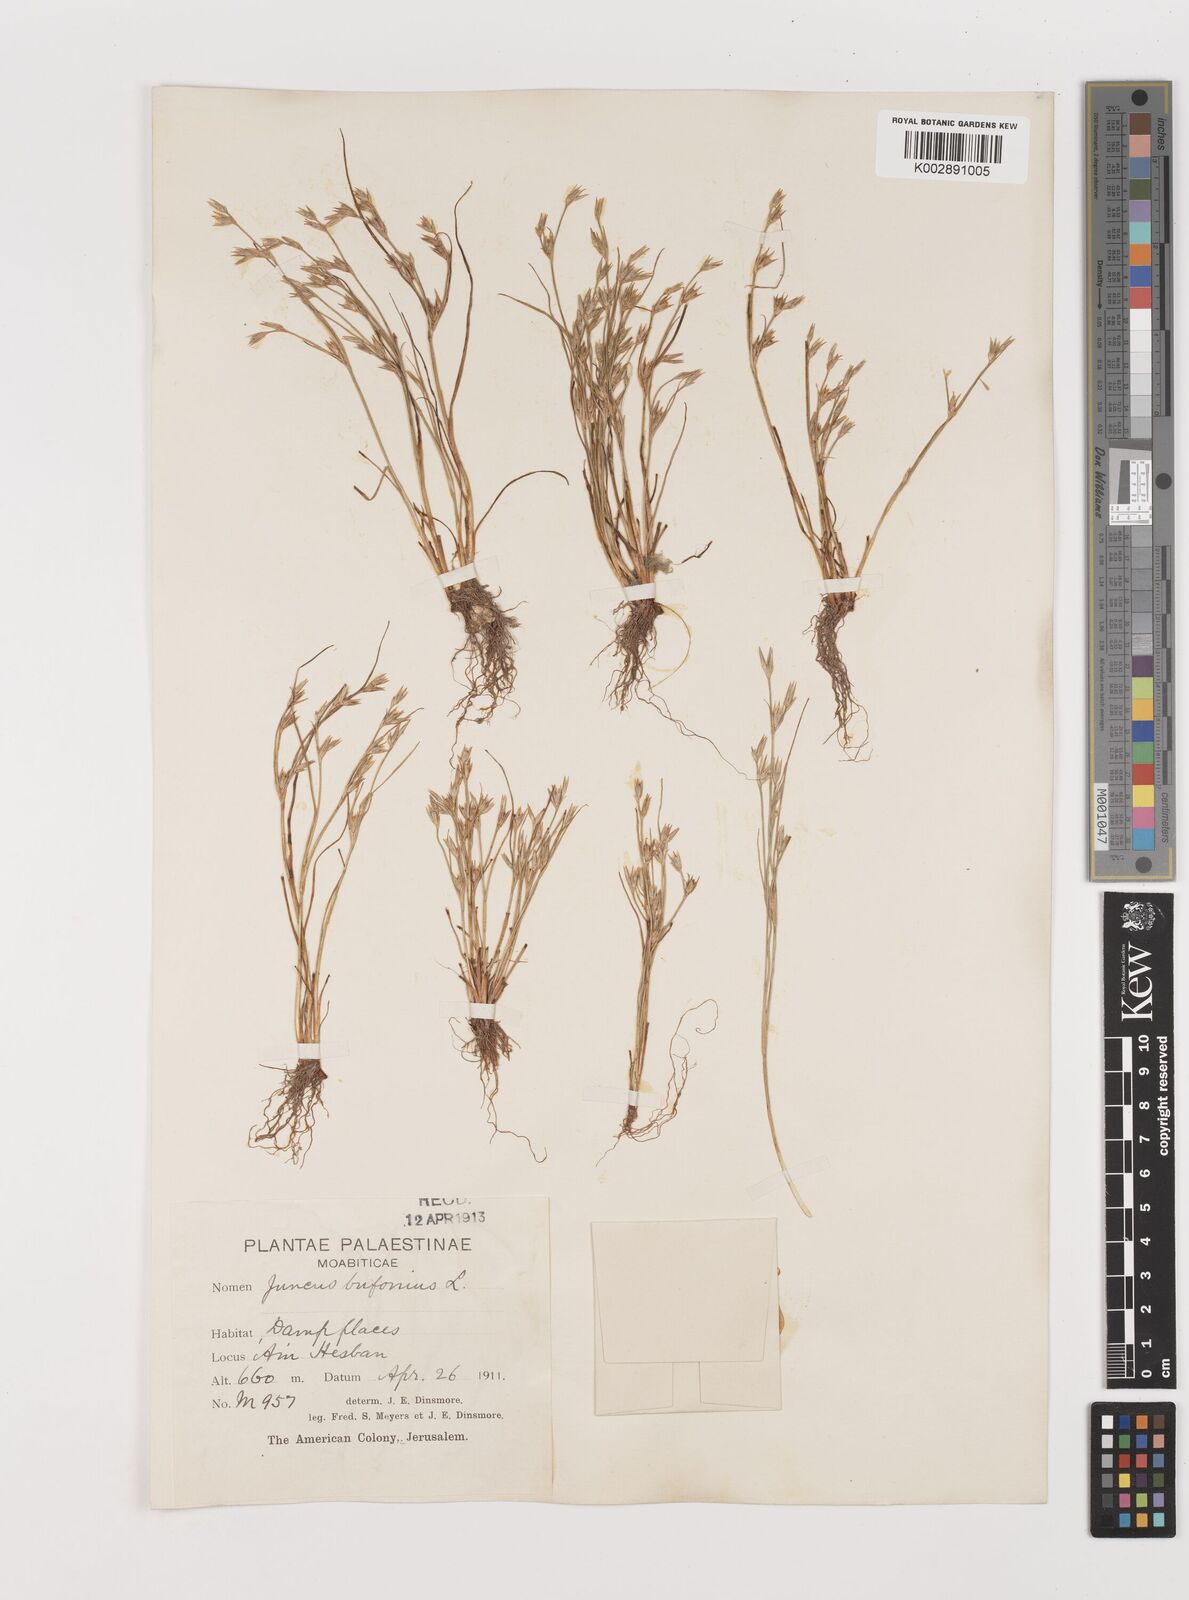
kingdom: Plantae
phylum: Tracheophyta
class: Liliopsida
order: Poales
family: Juncaceae
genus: Juncus
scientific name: Juncus bufonius
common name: Toad rush
